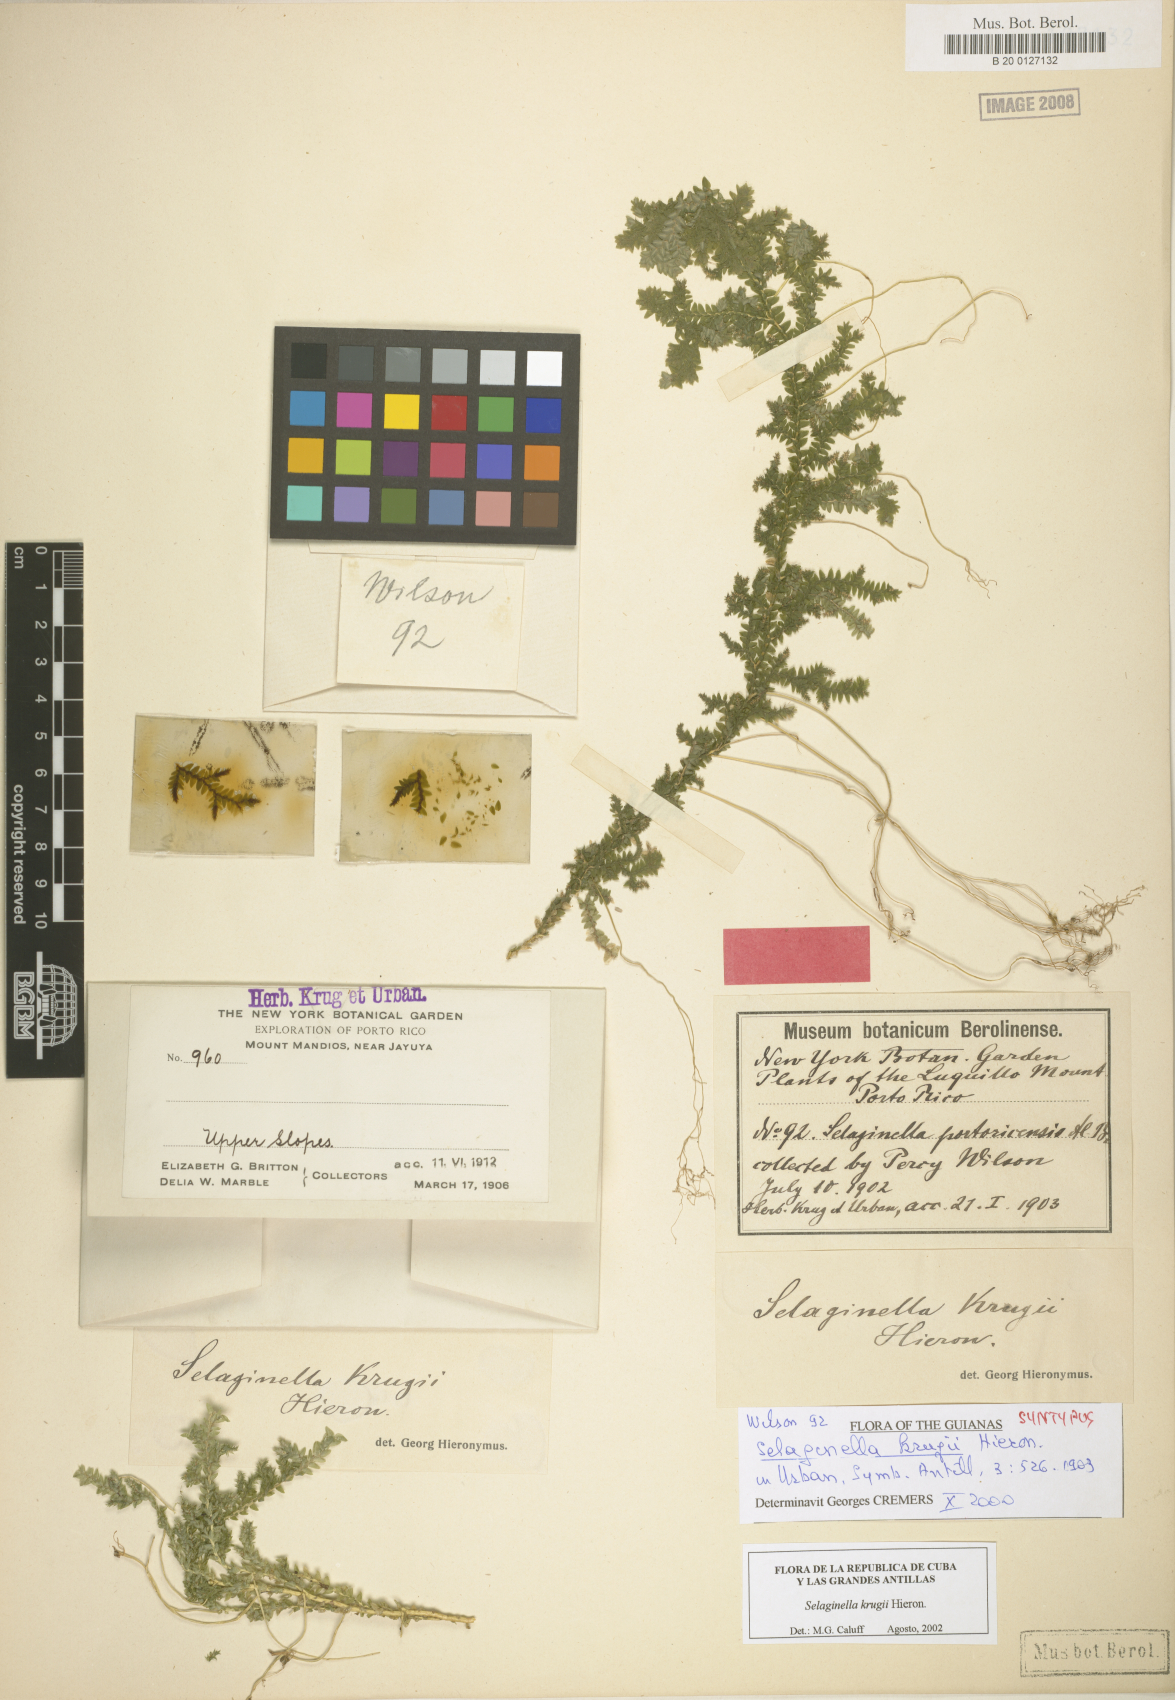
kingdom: Plantae
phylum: Tracheophyta
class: Lycopodiopsida
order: Selaginellales
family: Selaginellaceae
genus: Selaginella
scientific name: Selaginella krugii
